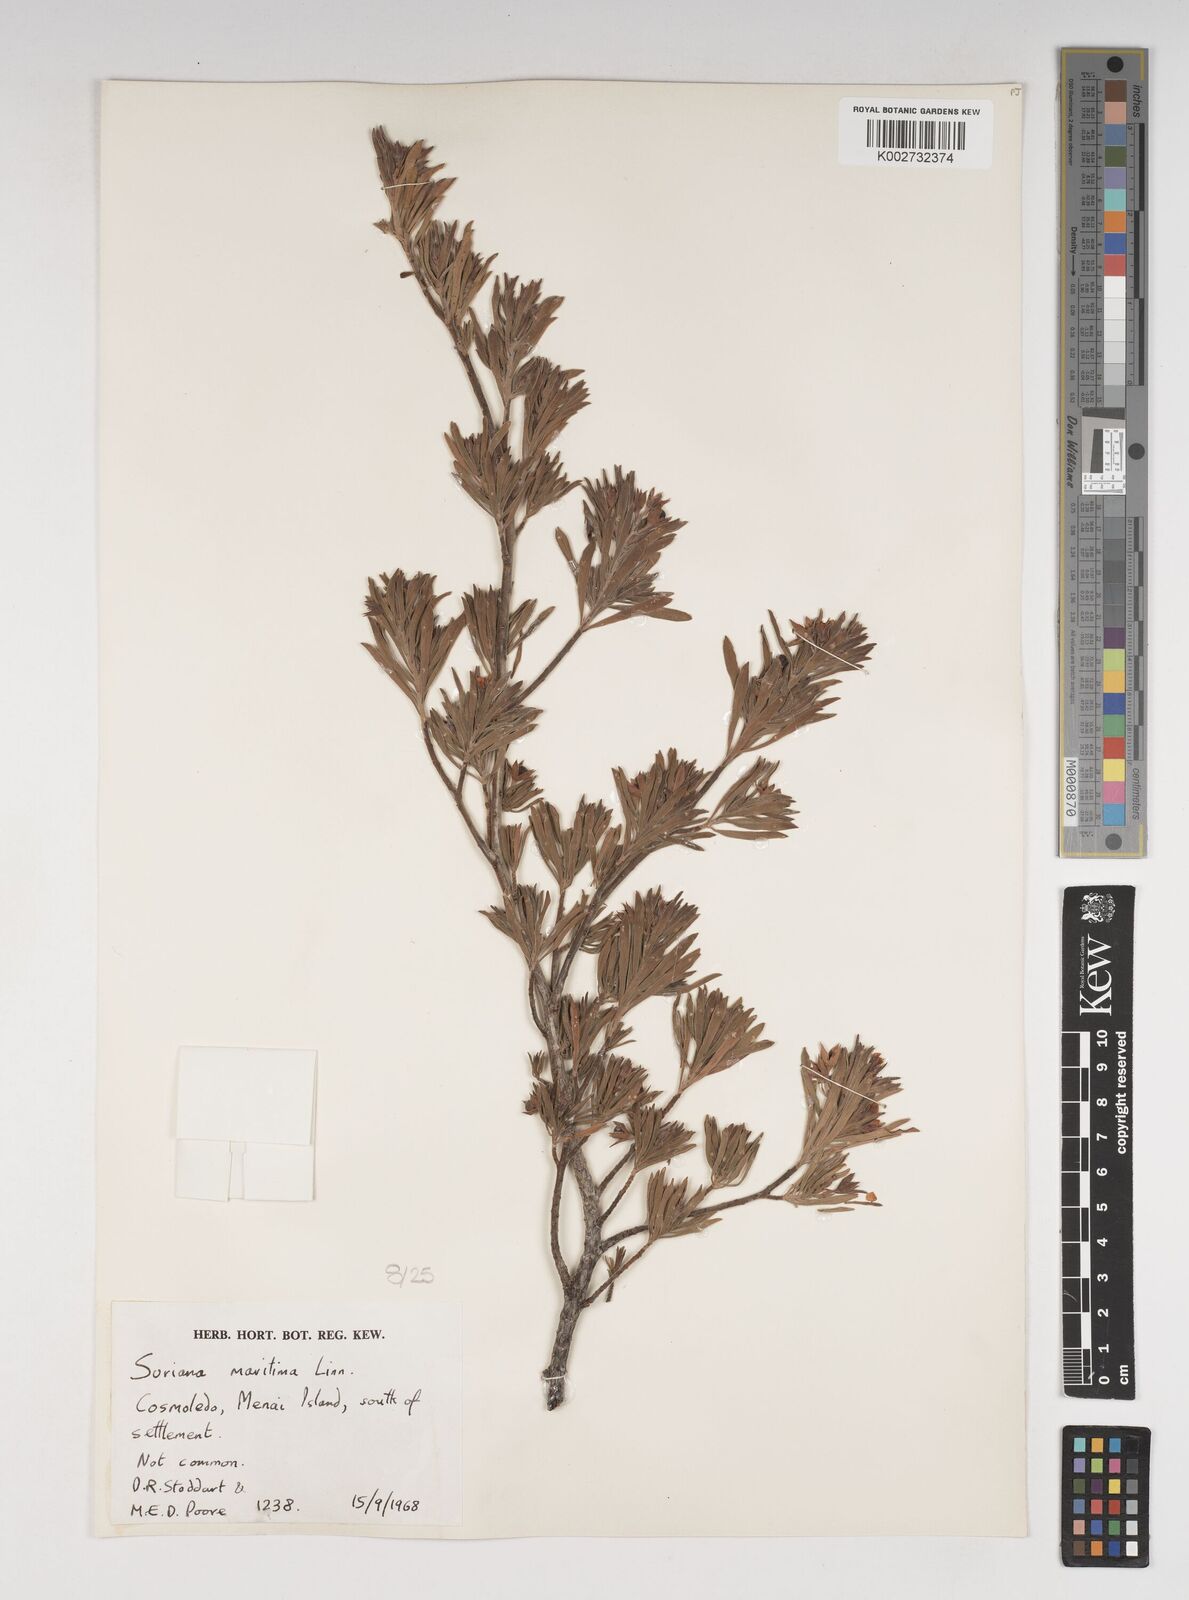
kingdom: Plantae
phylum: Tracheophyta
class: Magnoliopsida
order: Fabales
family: Surianaceae
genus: Suriana
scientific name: Suriana maritima
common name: Bay-cedar
